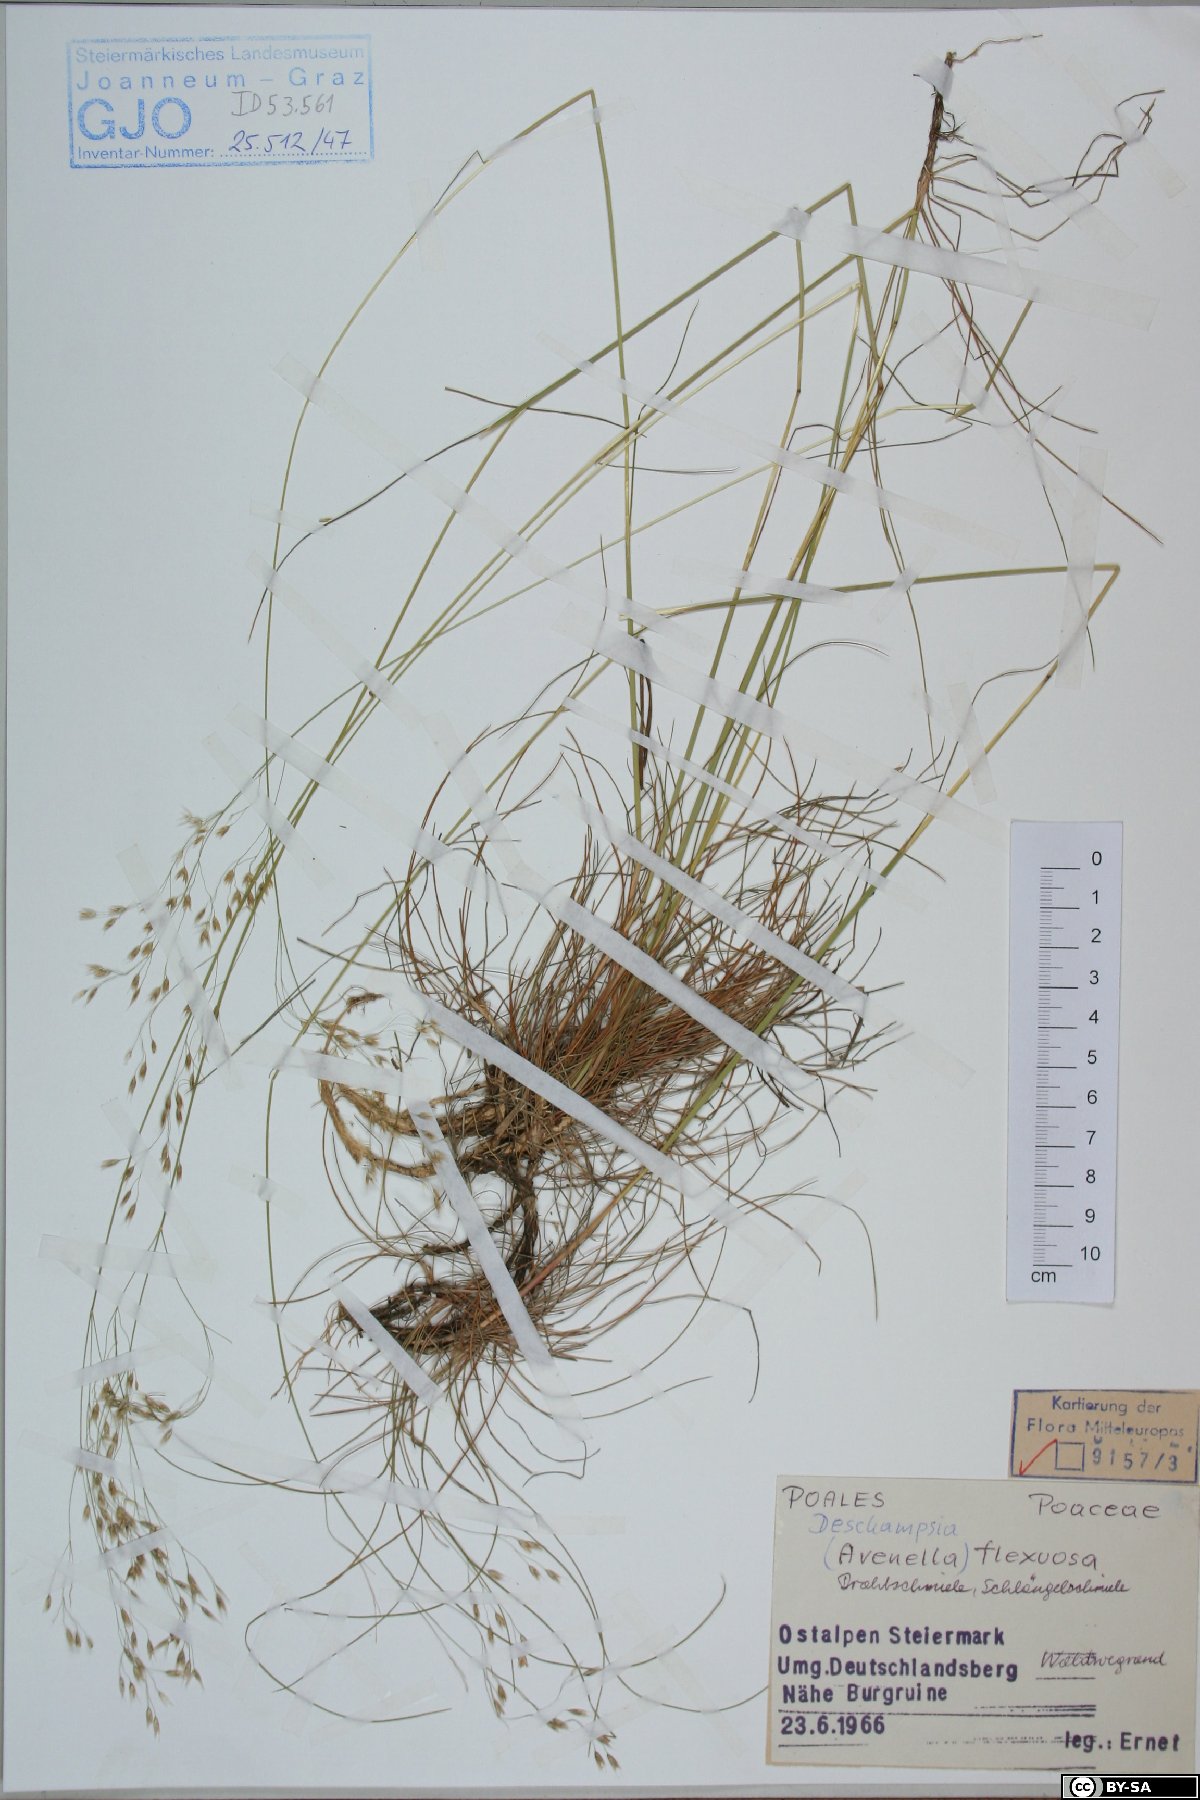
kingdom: Plantae
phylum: Tracheophyta
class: Liliopsida
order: Poales
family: Poaceae
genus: Avenella
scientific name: Avenella flexuosa
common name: Wavy hairgrass
